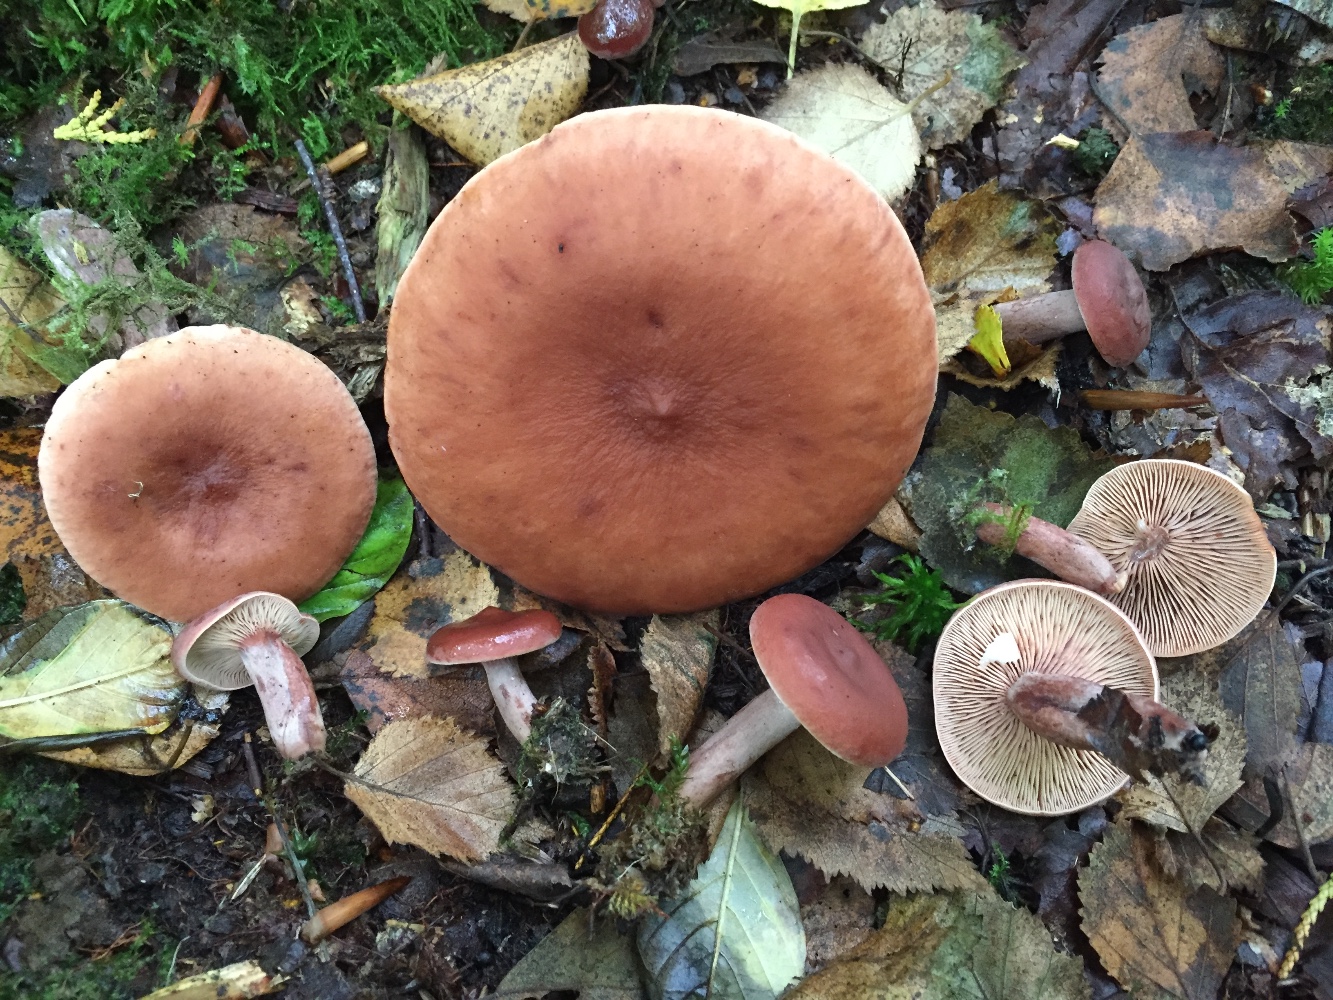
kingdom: Fungi
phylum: Basidiomycota
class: Agaricomycetes
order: Russulales
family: Russulaceae
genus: Lactarius
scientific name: Lactarius camphoratus
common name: kamfer-mælkehat
